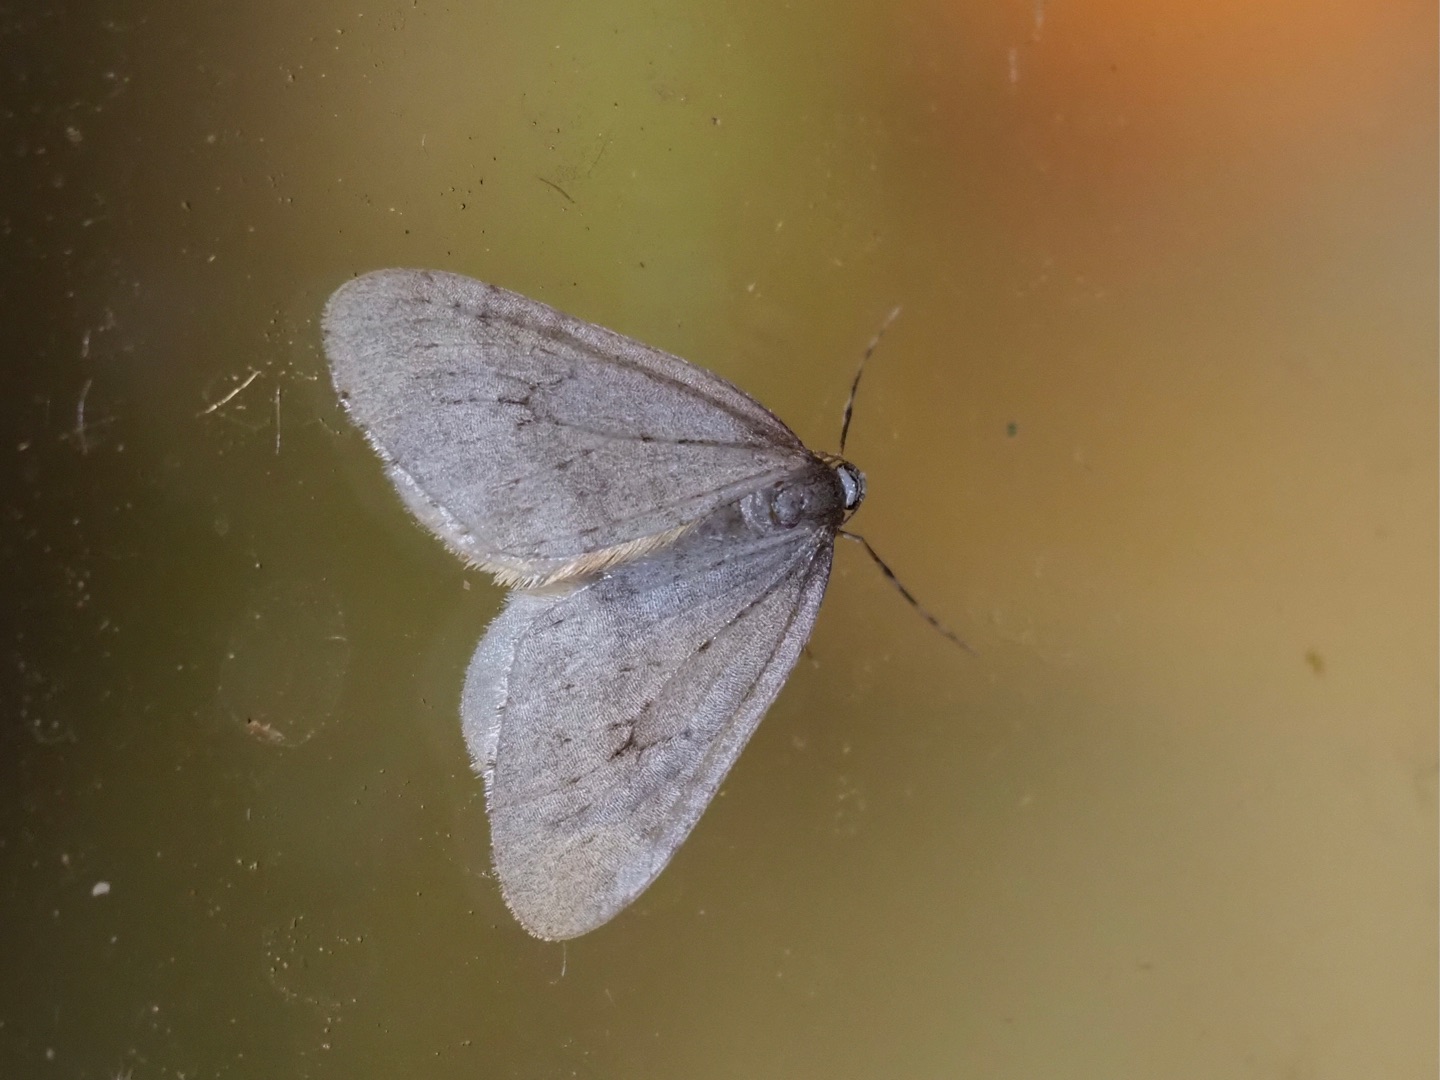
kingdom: Animalia
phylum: Arthropoda
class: Insecta
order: Lepidoptera
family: Geometridae
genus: Operophtera
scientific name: Operophtera brumata
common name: Lille frostmåler
